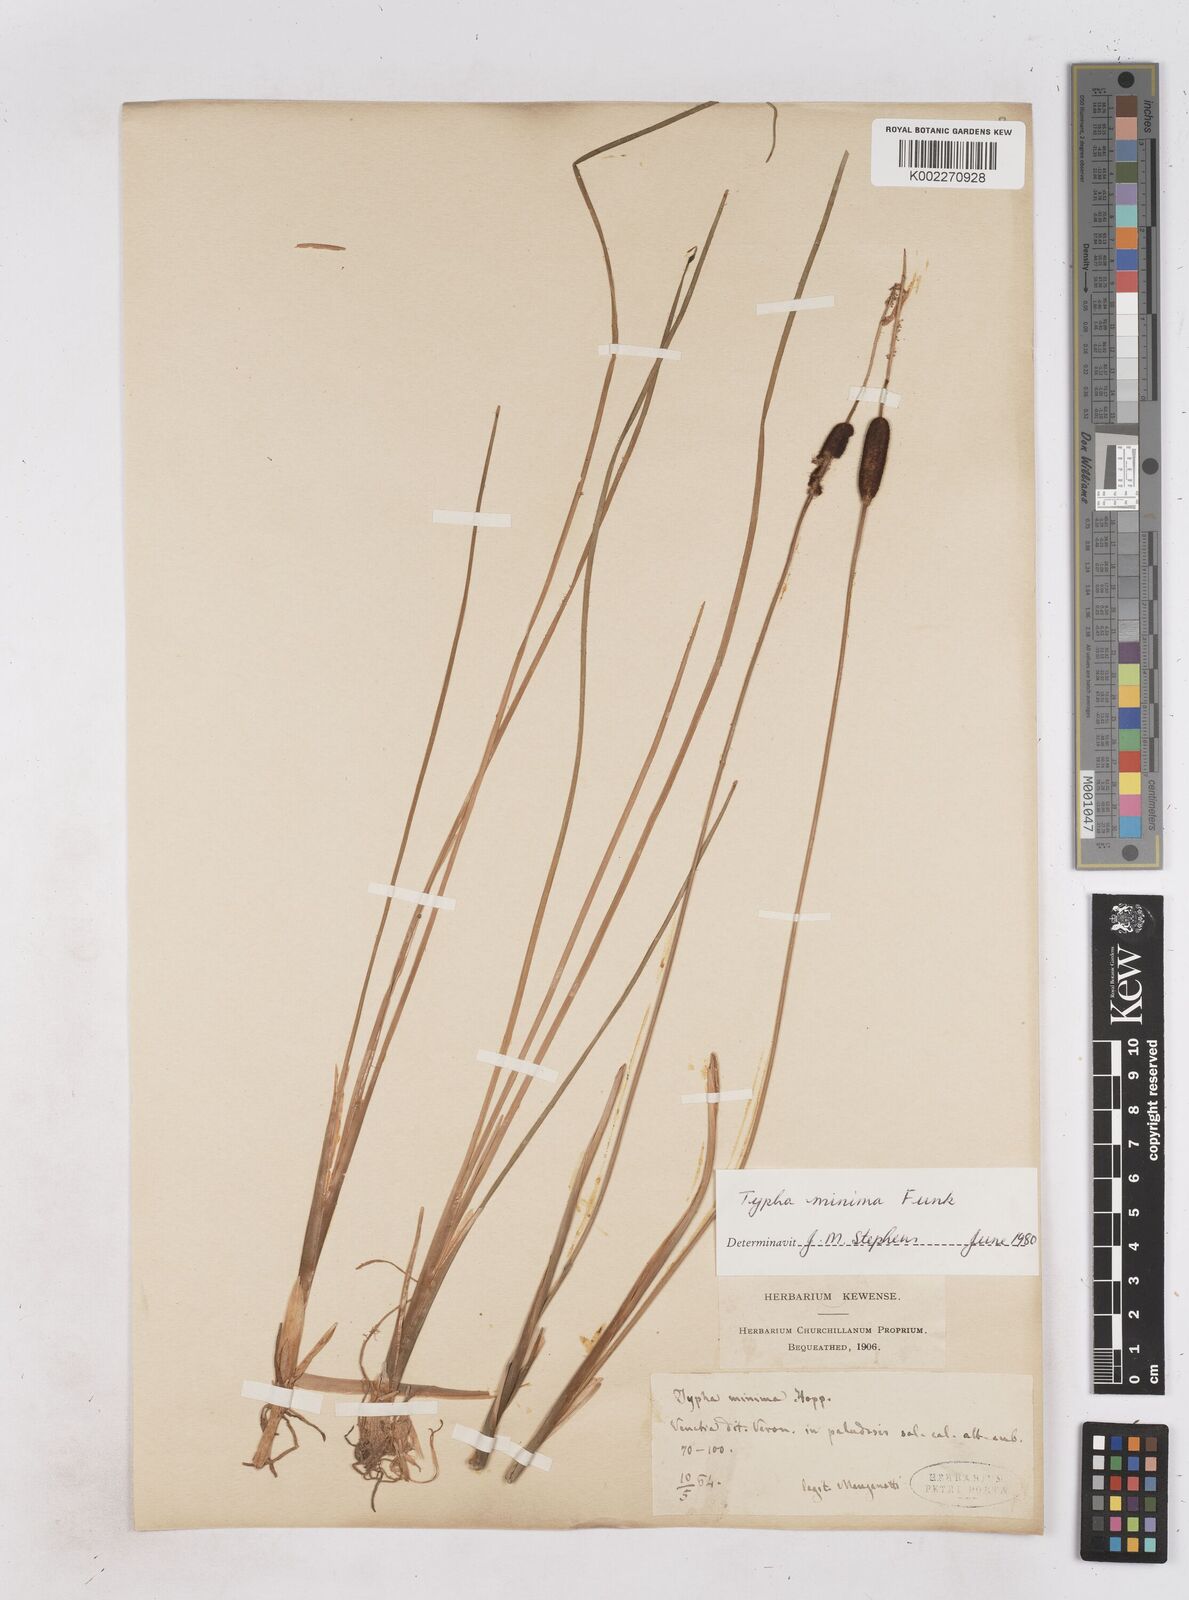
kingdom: Plantae
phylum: Tracheophyta
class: Liliopsida
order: Poales
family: Typhaceae
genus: Typha
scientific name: Typha minima
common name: Dwarf bulrush
